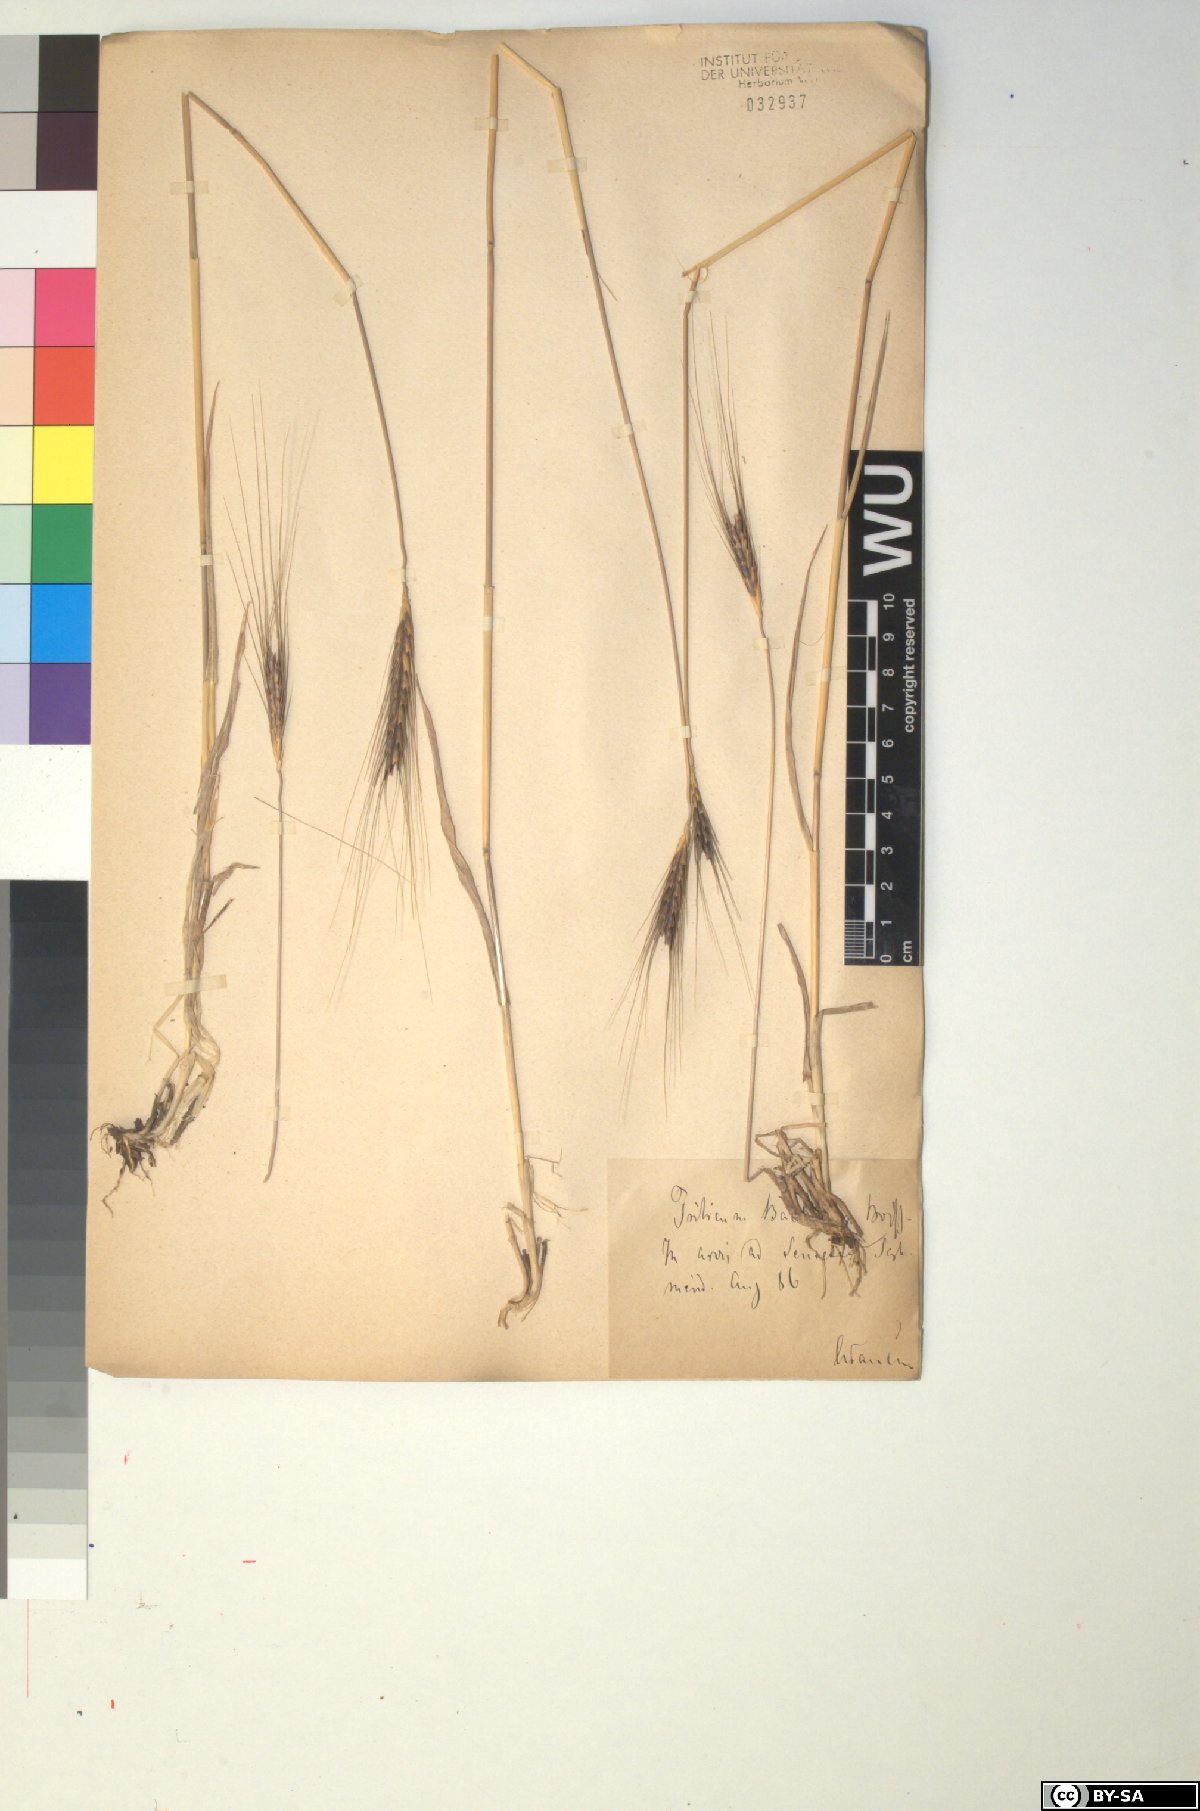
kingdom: Plantae
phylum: Tracheophyta
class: Liliopsida
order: Poales
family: Poaceae
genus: Triticum
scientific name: Triticum monococcum
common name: Einkorn
